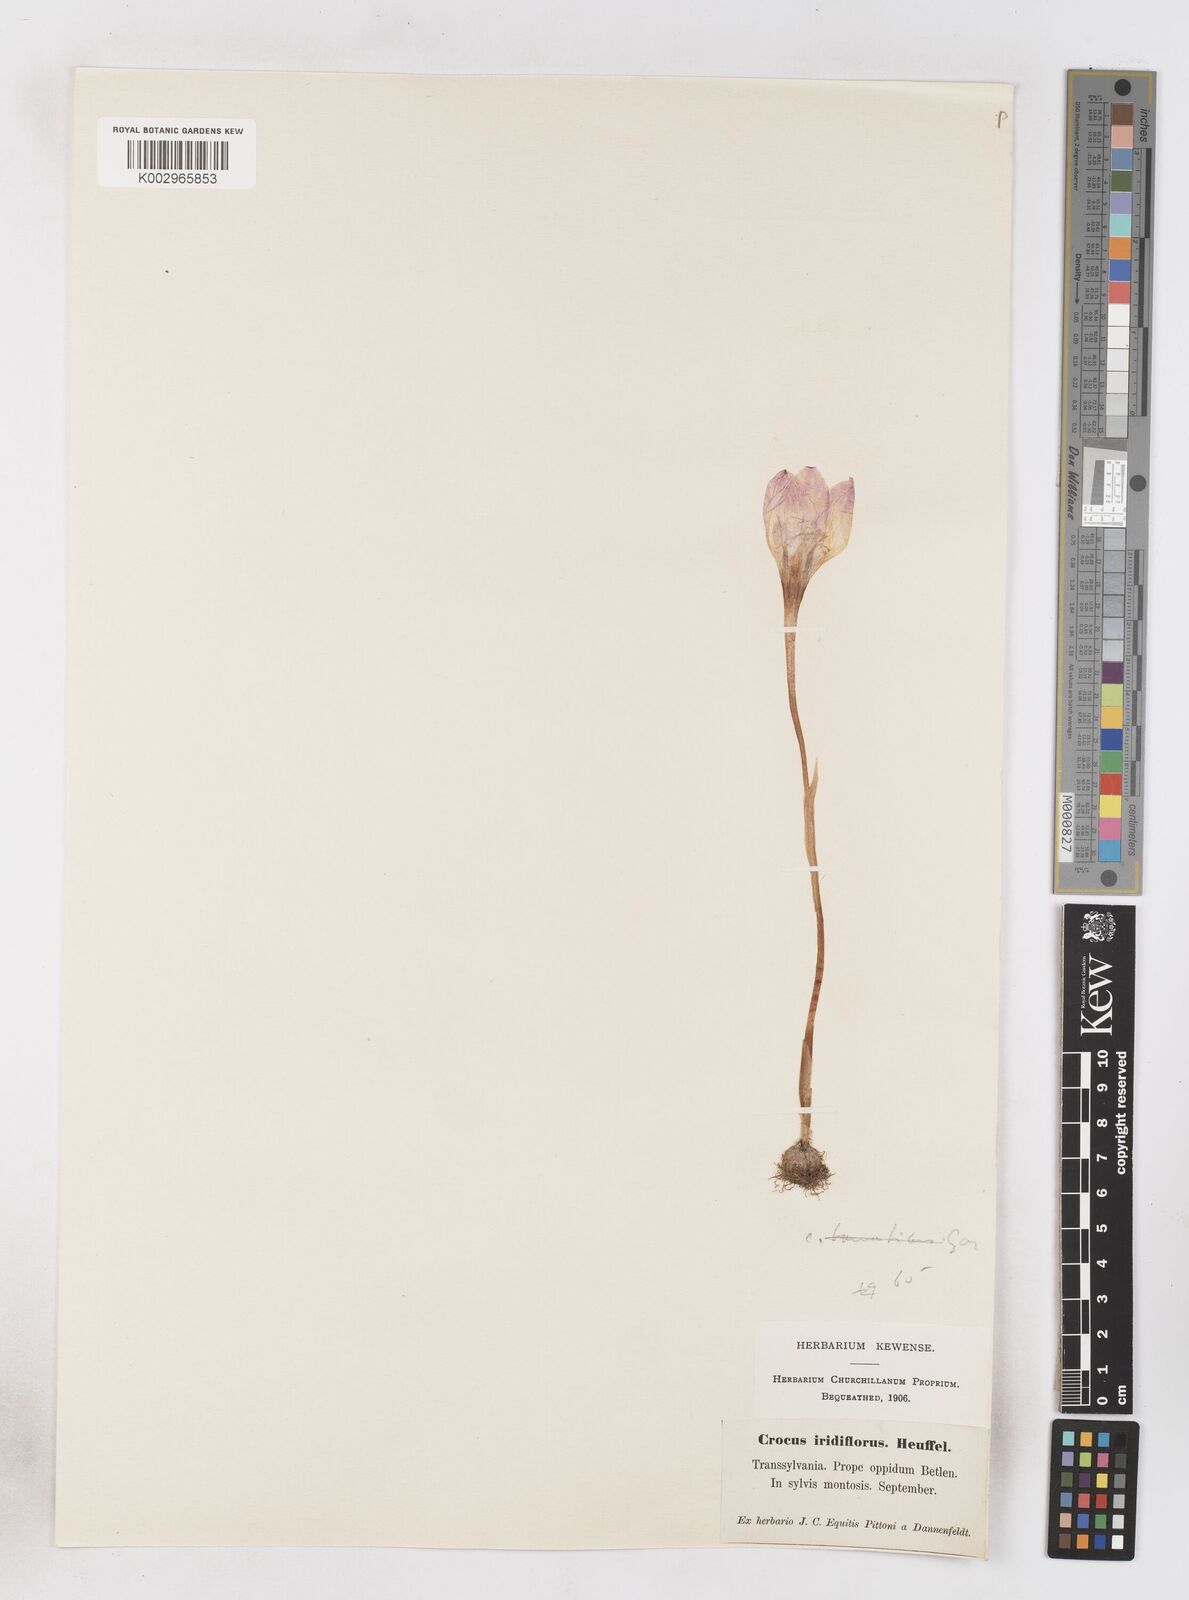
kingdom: Plantae
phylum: Tracheophyta
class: Liliopsida
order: Asparagales
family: Iridaceae
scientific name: Iridaceae
